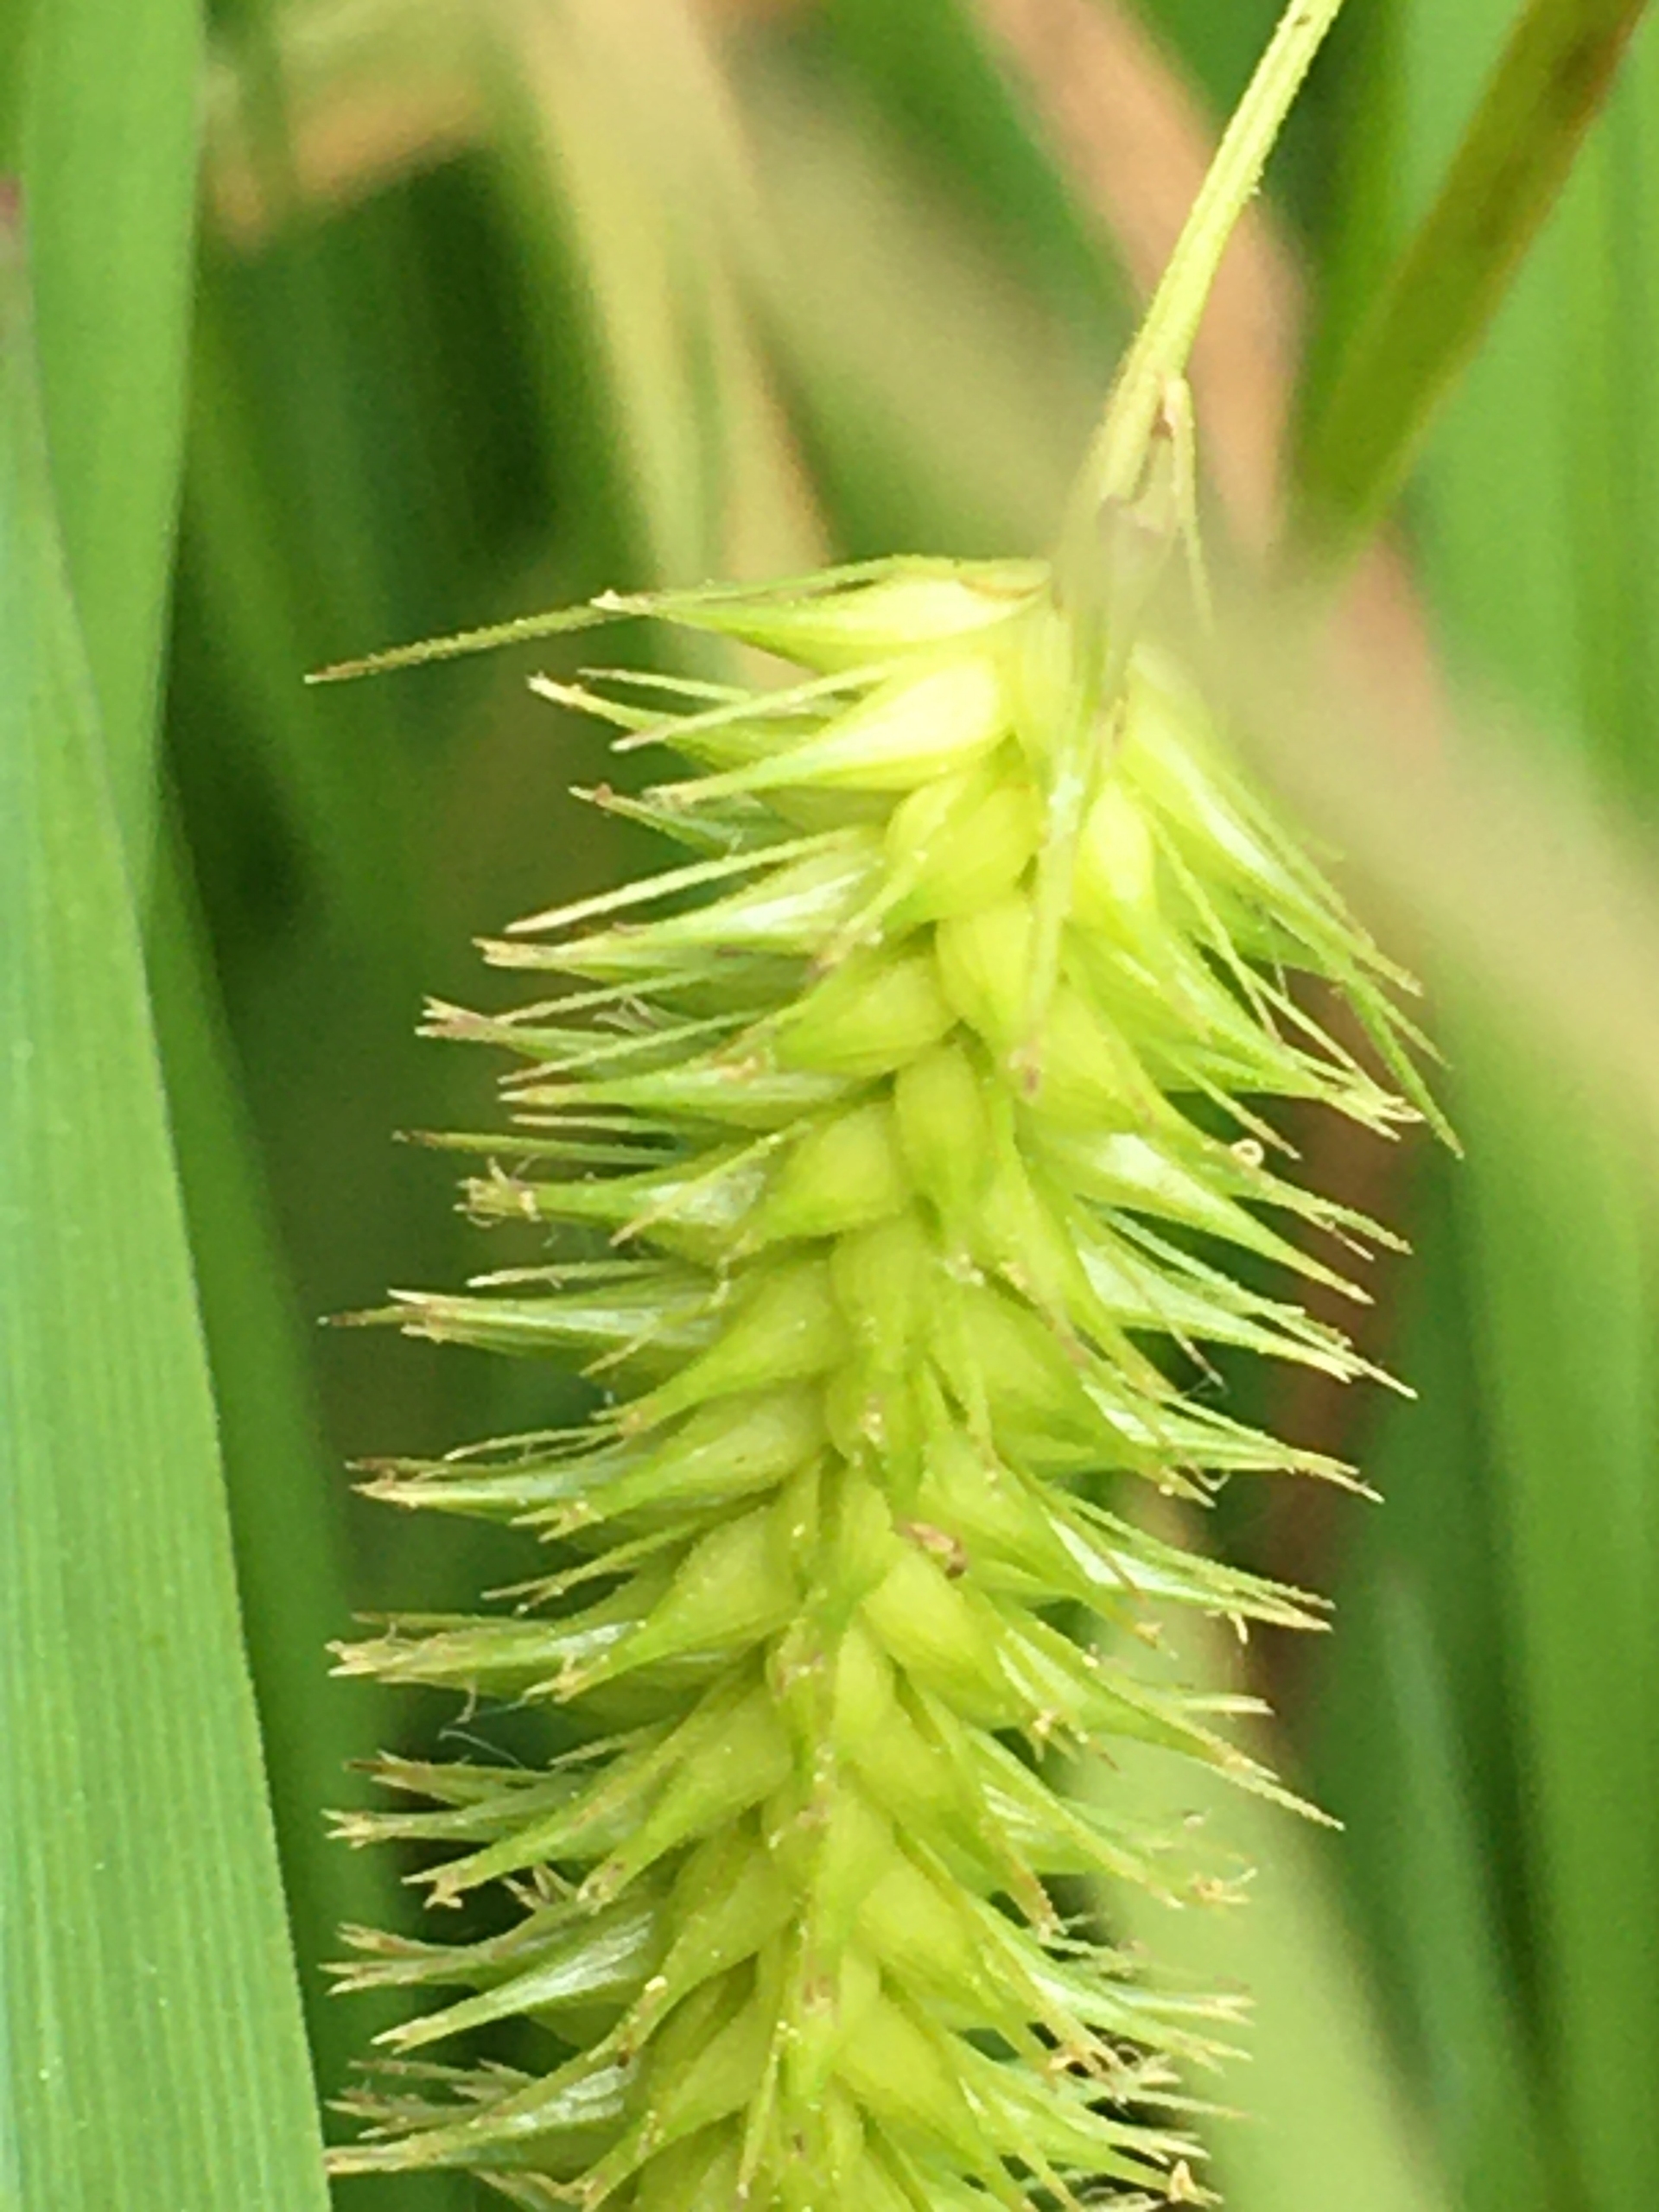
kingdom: Plantae
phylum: Tracheophyta
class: Liliopsida
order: Poales
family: Cyperaceae
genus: Carex
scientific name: Carex pseudocyperus
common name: Knippe-star
